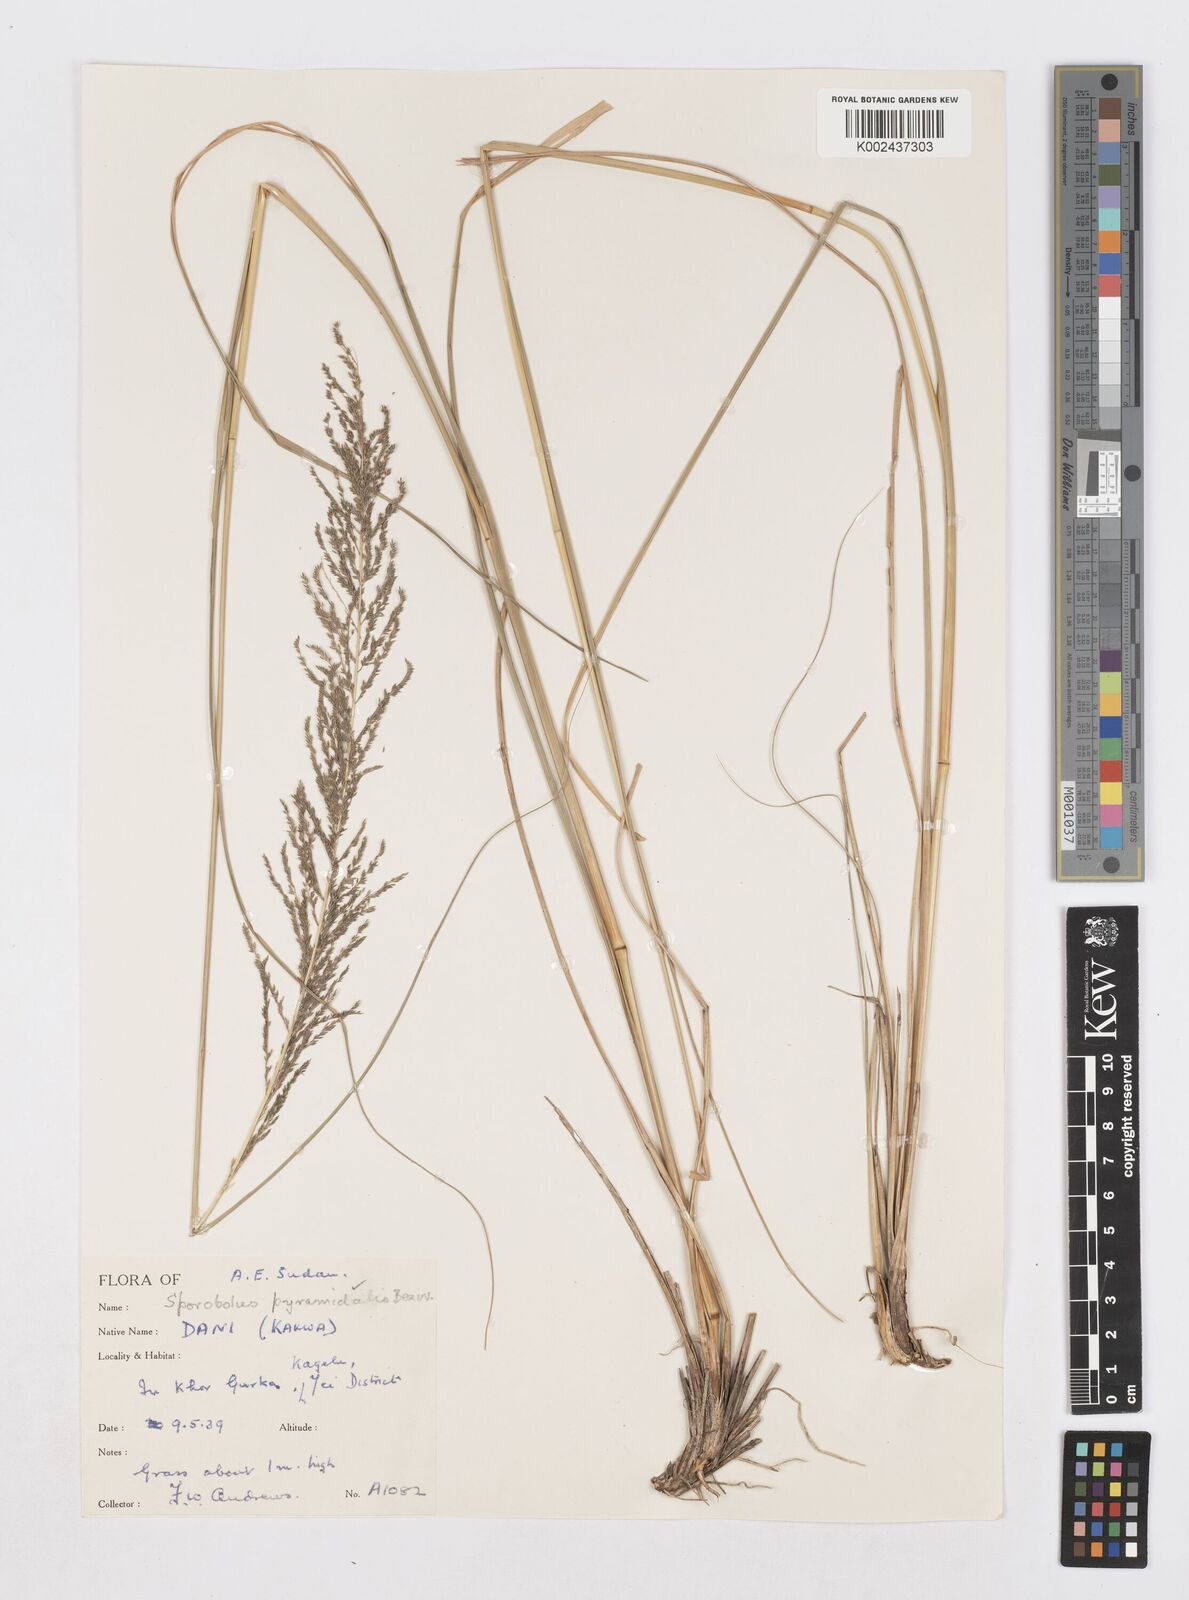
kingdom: Plantae
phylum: Tracheophyta
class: Liliopsida
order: Poales
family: Poaceae
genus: Sporobolus
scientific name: Sporobolus pyramidalis
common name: West indian dropseed
